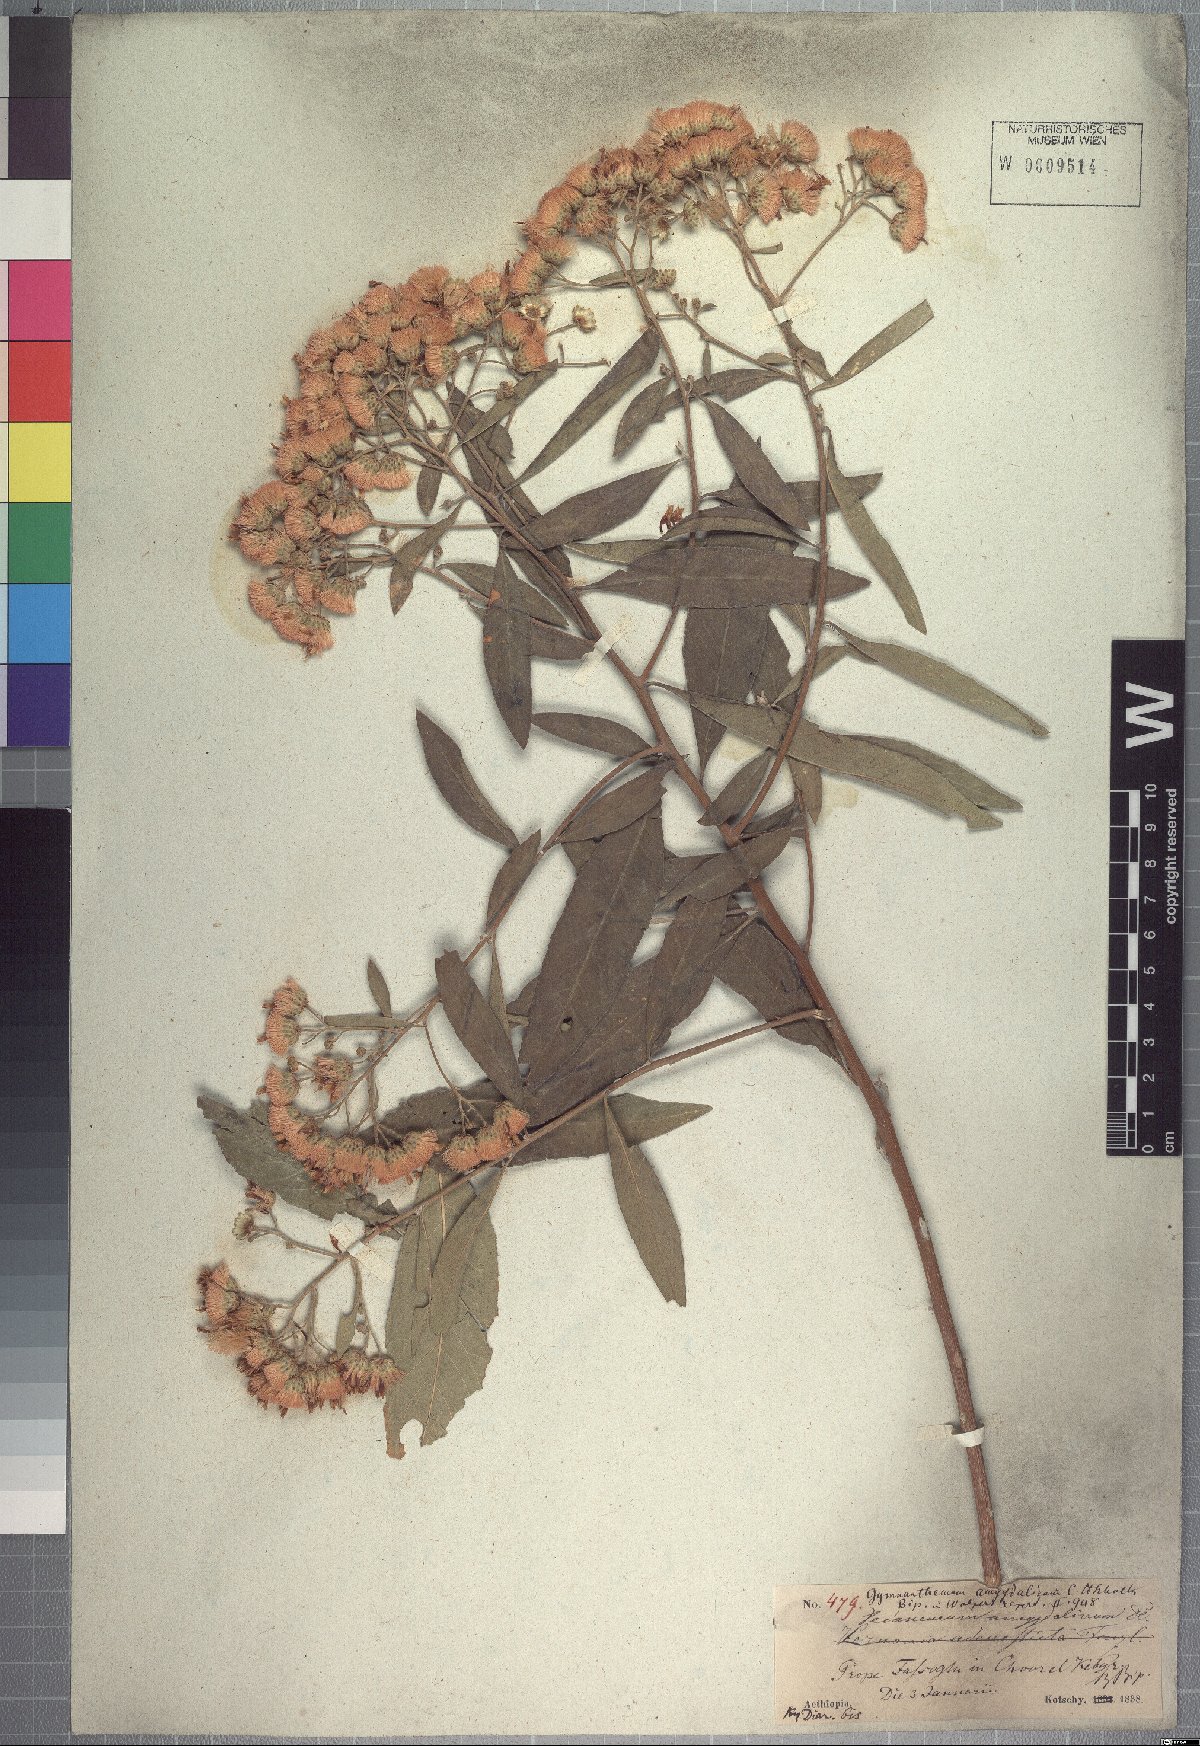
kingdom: Plantae
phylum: Tracheophyta
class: Magnoliopsida
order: Asterales
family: Asteraceae
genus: Gymnanthemum
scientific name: Gymnanthemum amygdalinum
